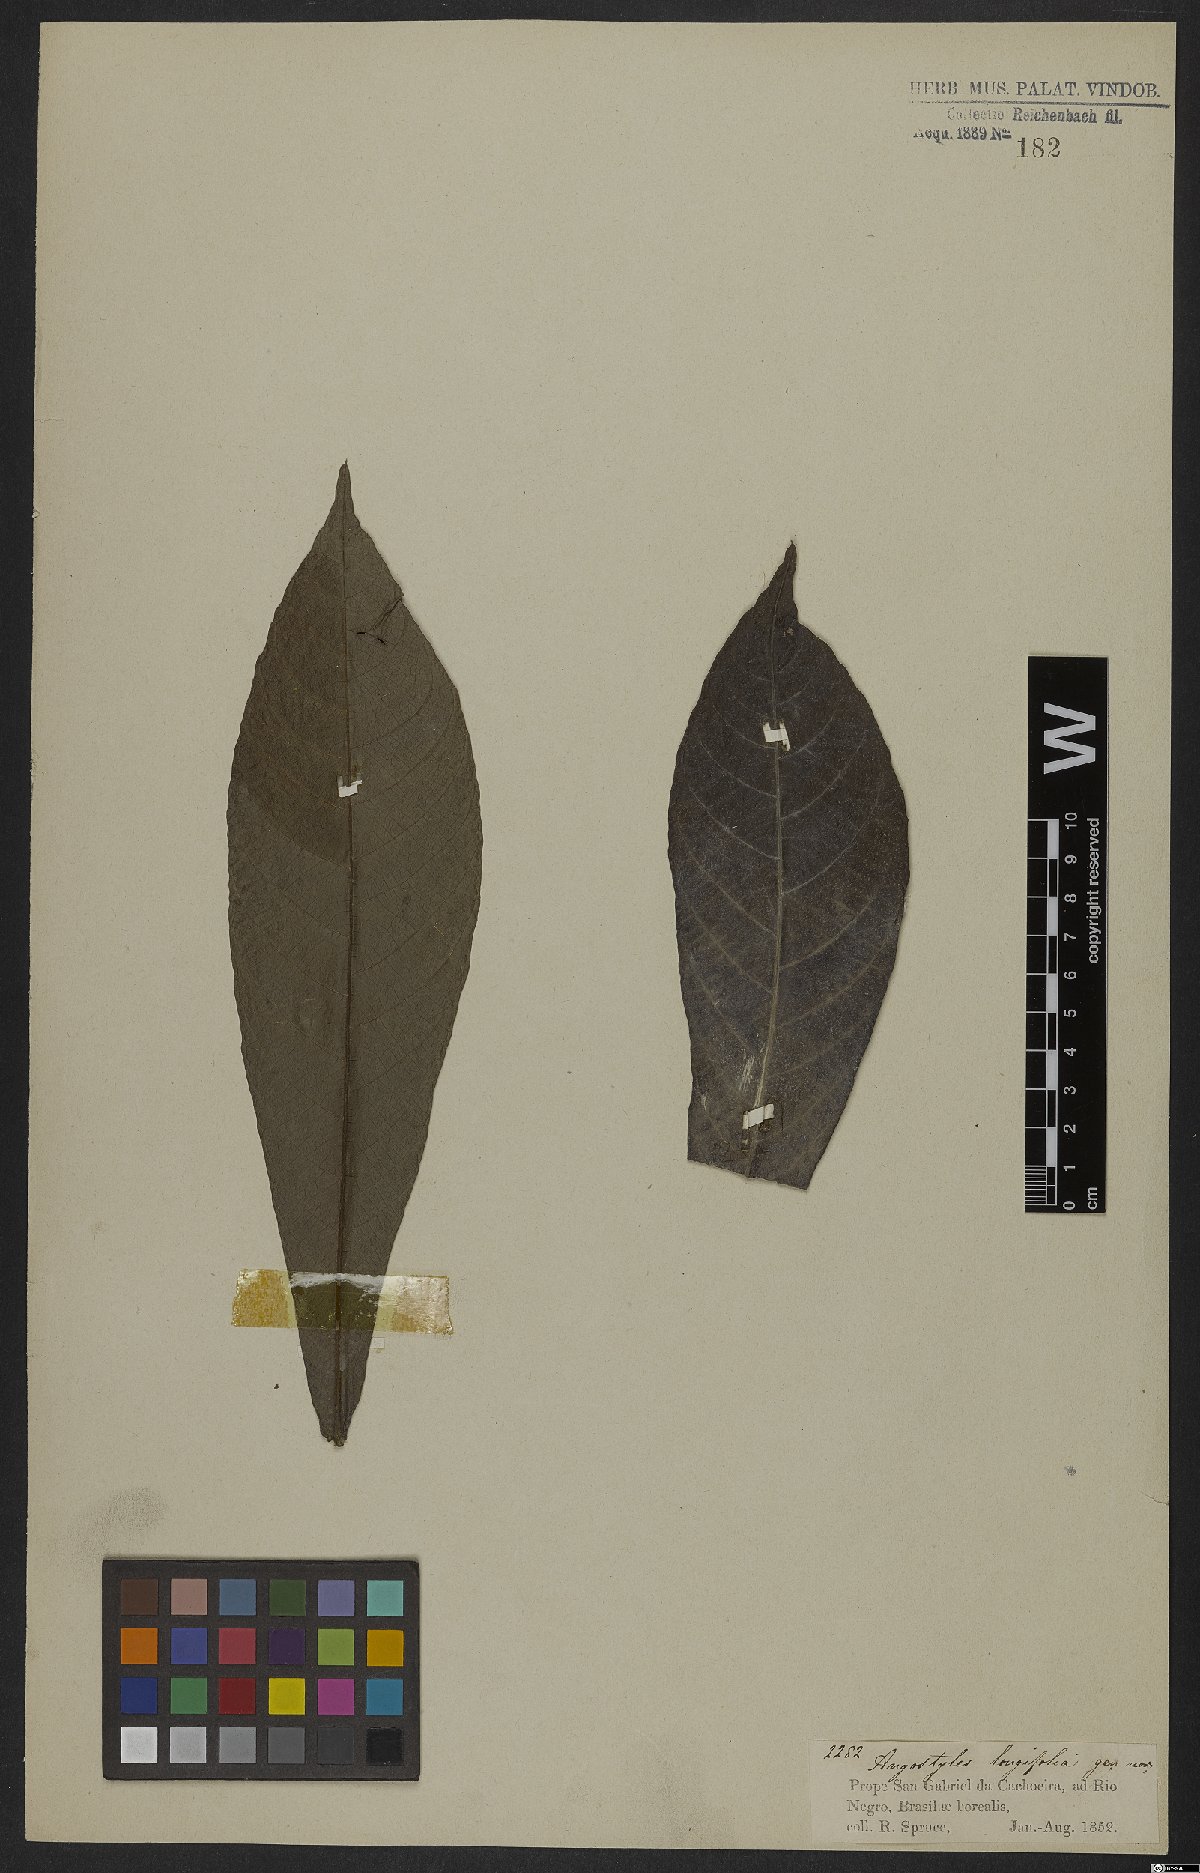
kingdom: Plantae
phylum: Tracheophyta
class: Magnoliopsida
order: Malpighiales
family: Euphorbiaceae
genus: Angostylis
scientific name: Angostylis longifolia
